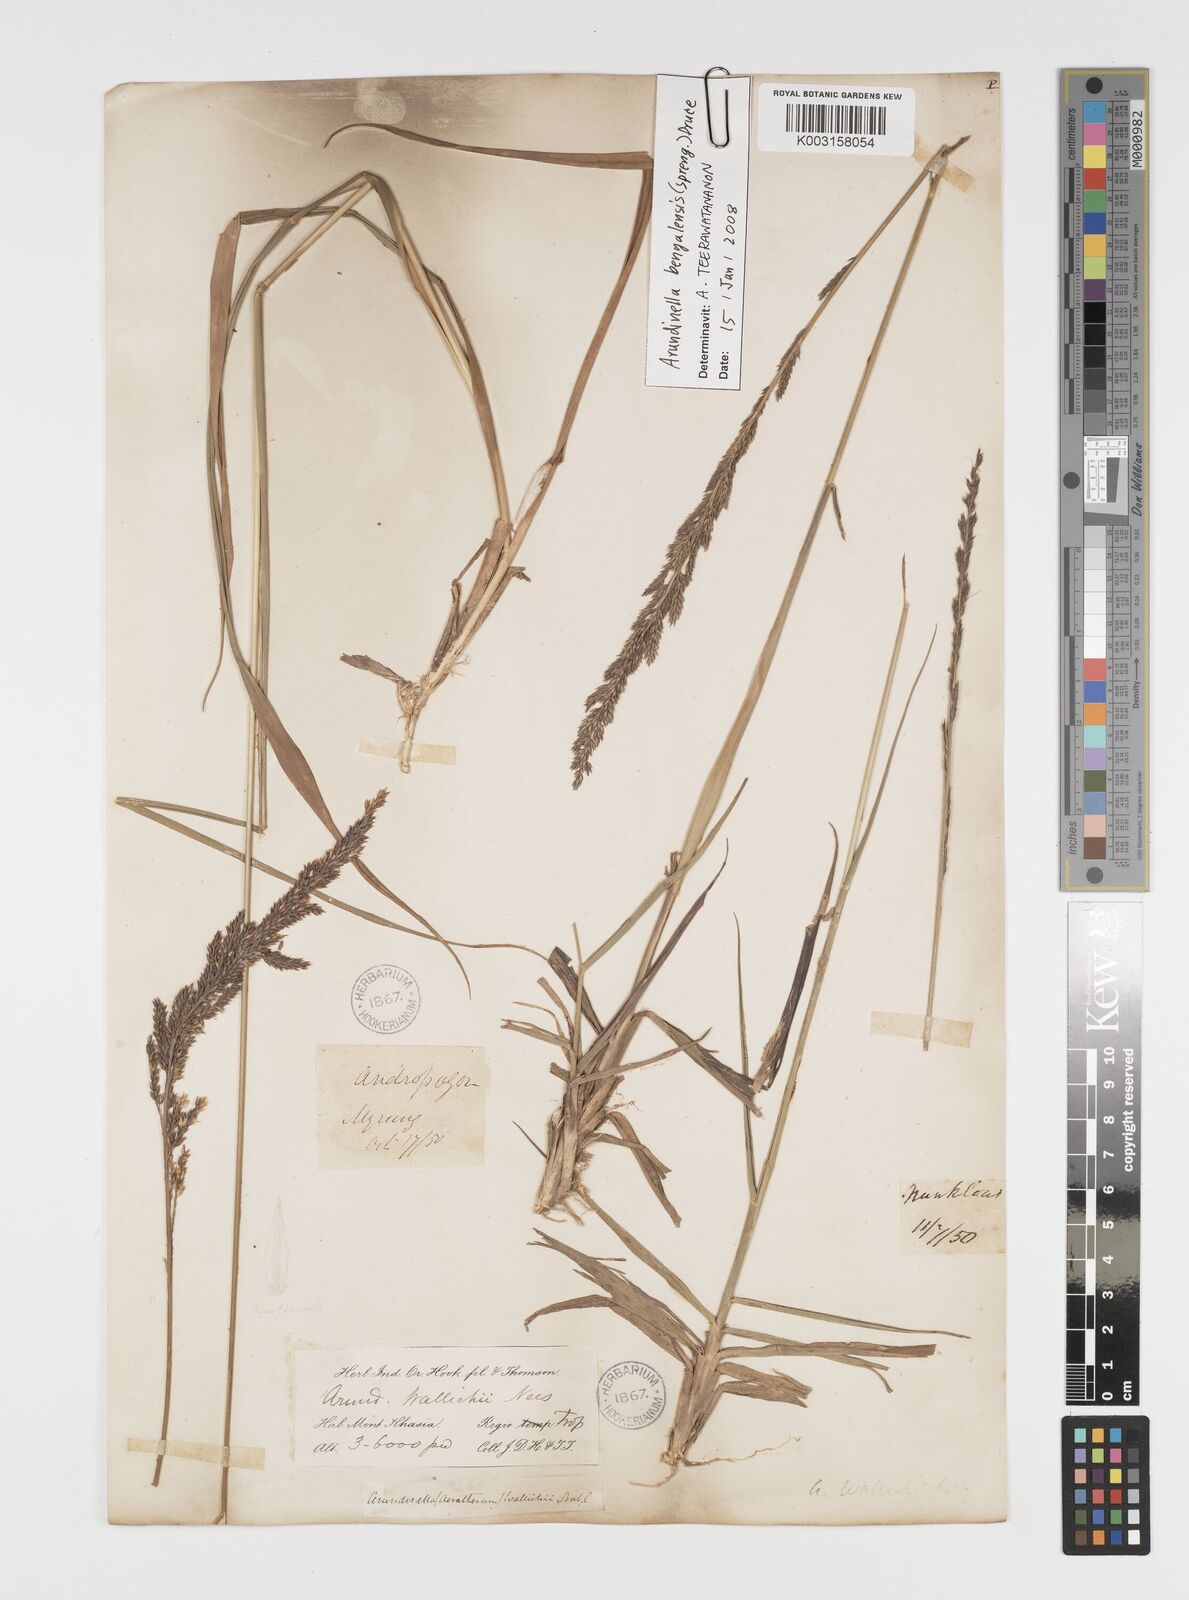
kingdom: Plantae
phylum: Tracheophyta
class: Liliopsida
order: Poales
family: Poaceae
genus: Arundinella
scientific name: Arundinella bengalensis
